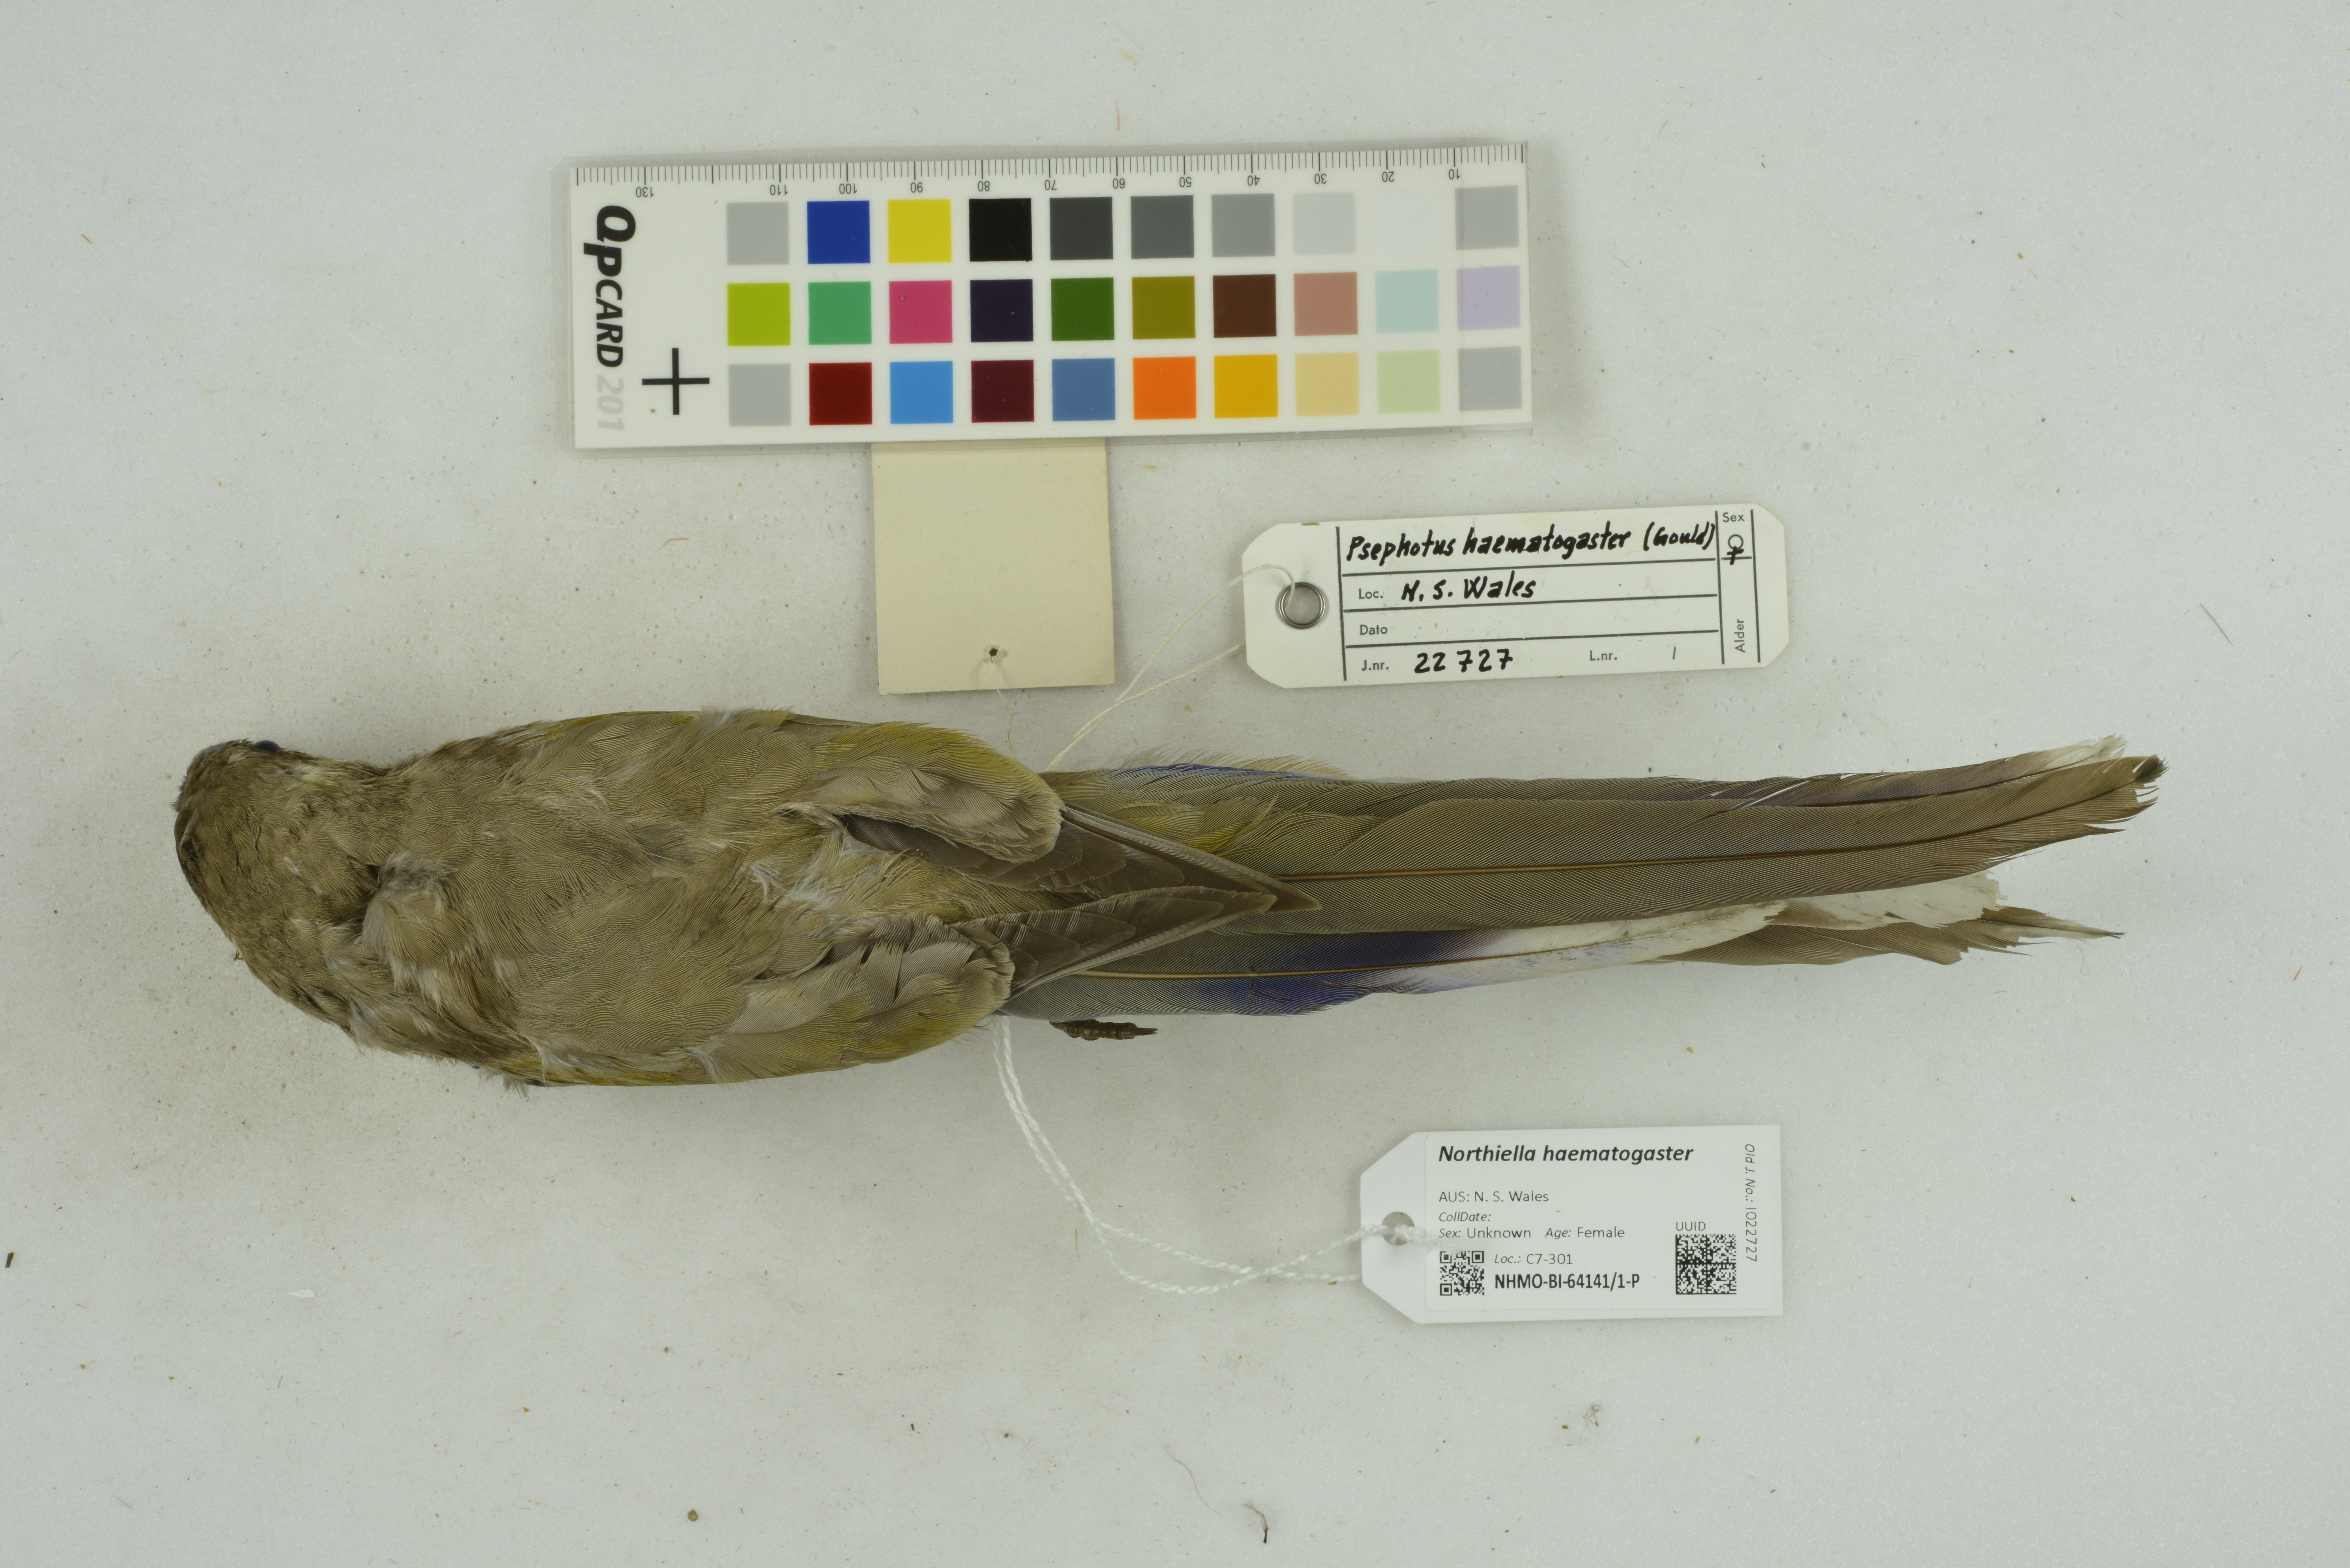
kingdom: Animalia
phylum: Chordata
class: Aves
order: Psittaciformes
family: Psittacidae
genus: Northiella
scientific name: Northiella haematogaster
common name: Bluebonnet
